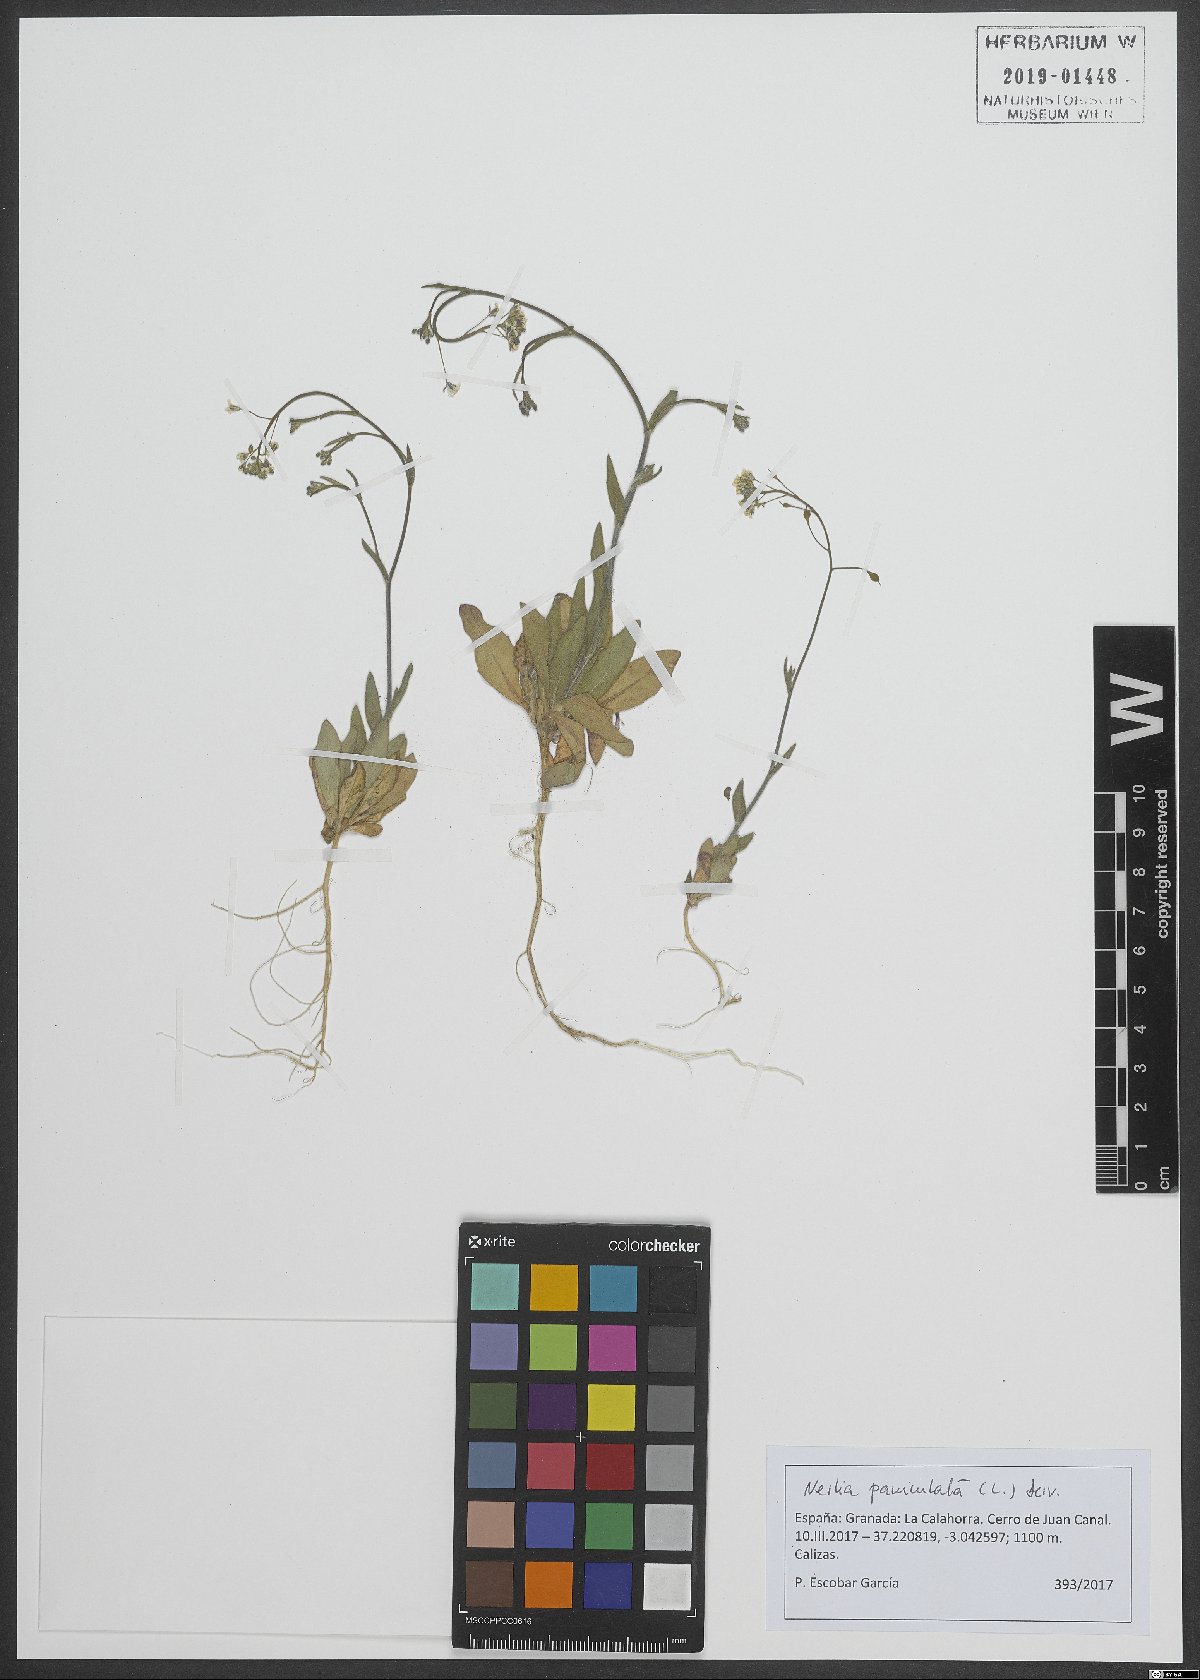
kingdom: Plantae
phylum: Tracheophyta
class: Magnoliopsida
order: Brassicales
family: Brassicaceae
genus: Neslia
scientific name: Neslia paniculata
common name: Ball mustard
